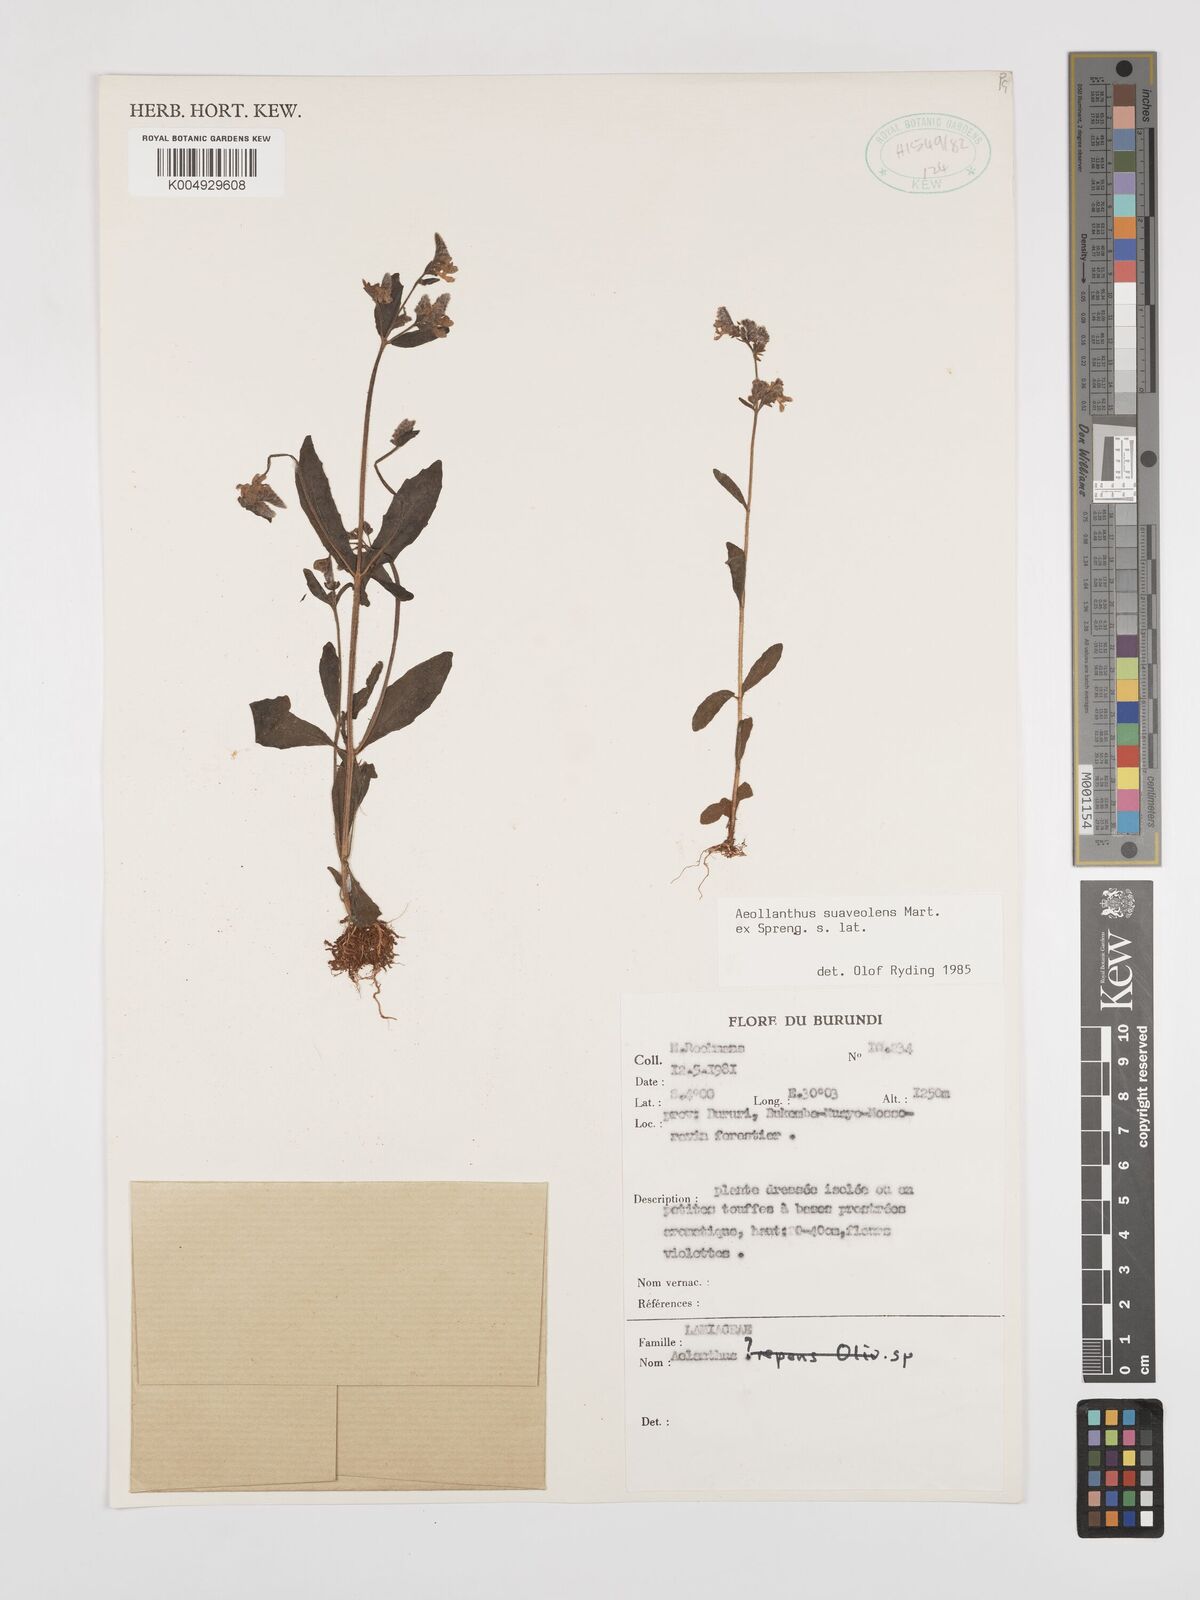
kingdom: Plantae
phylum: Tracheophyta
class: Magnoliopsida
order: Lamiales
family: Lamiaceae
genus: Aeollanthus
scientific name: Aeollanthus
